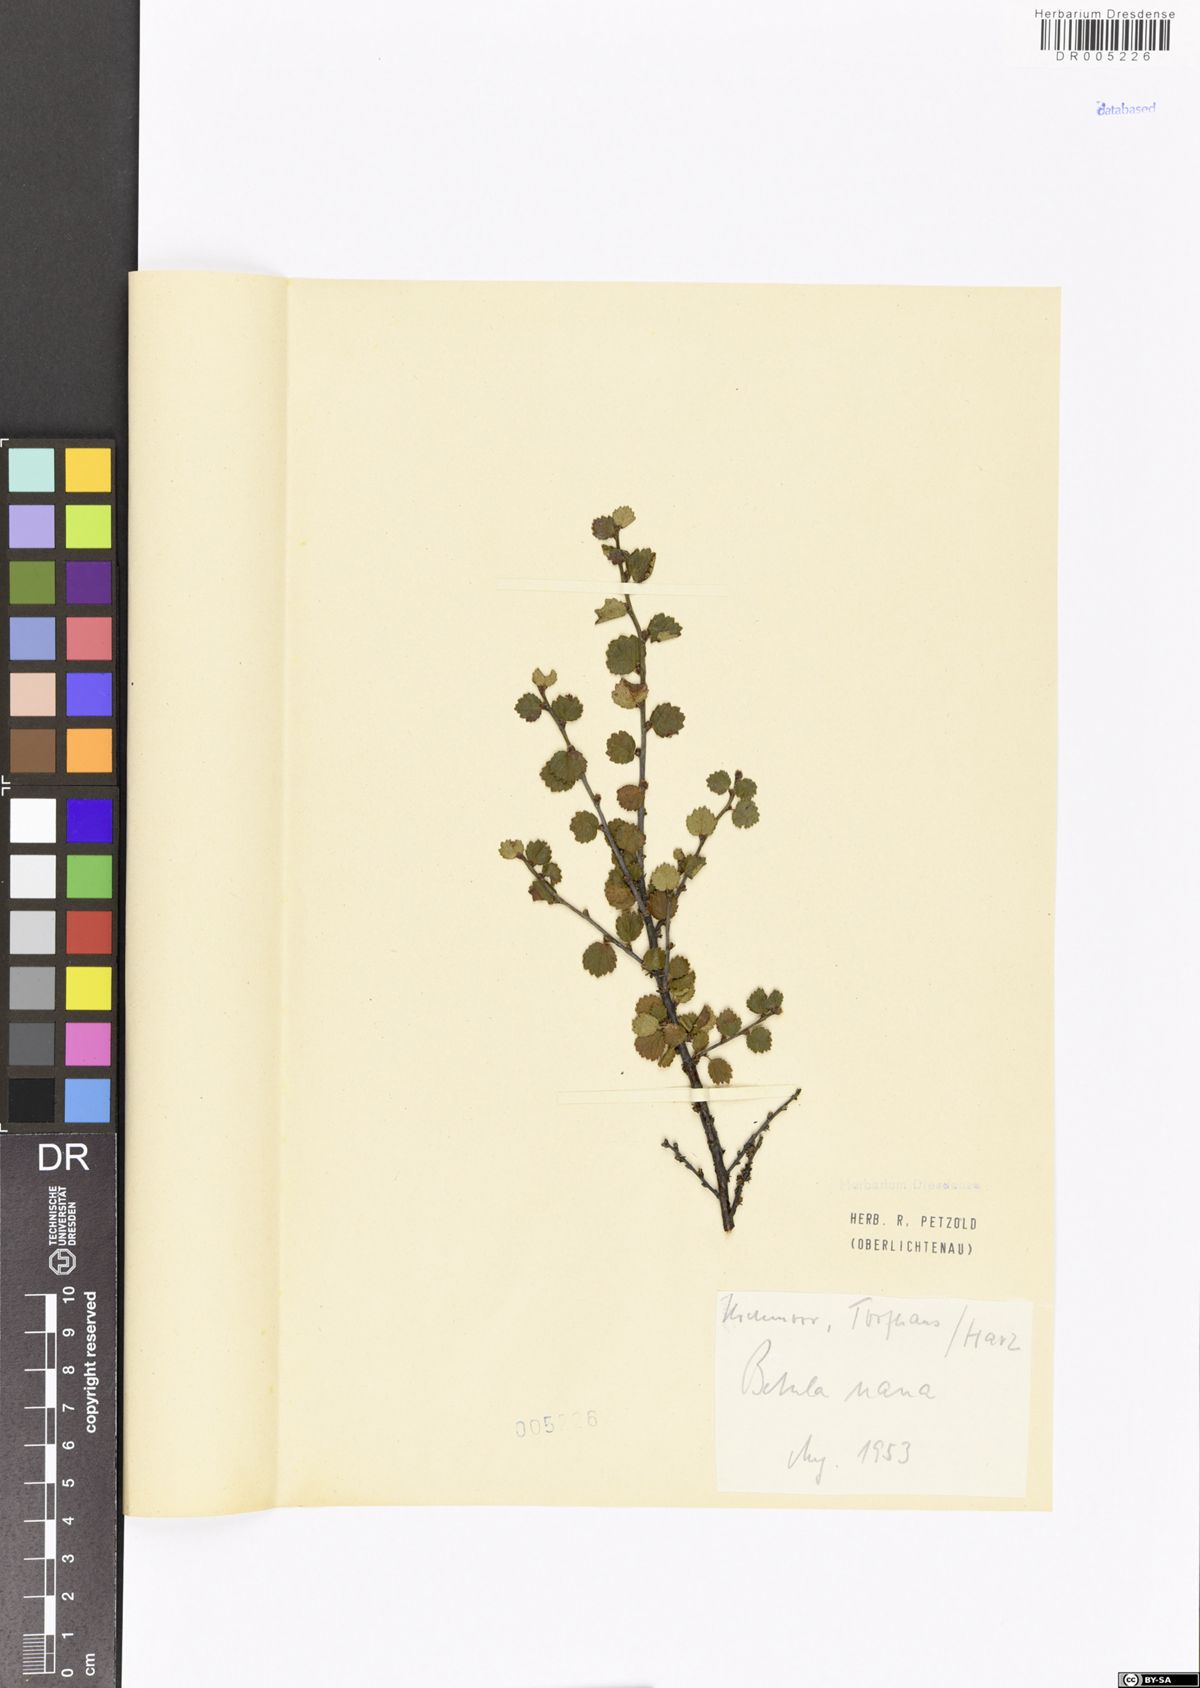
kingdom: Plantae
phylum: Tracheophyta
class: Magnoliopsida
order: Fagales
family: Betulaceae
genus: Betula
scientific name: Betula nana
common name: Arctic dwarf birch
